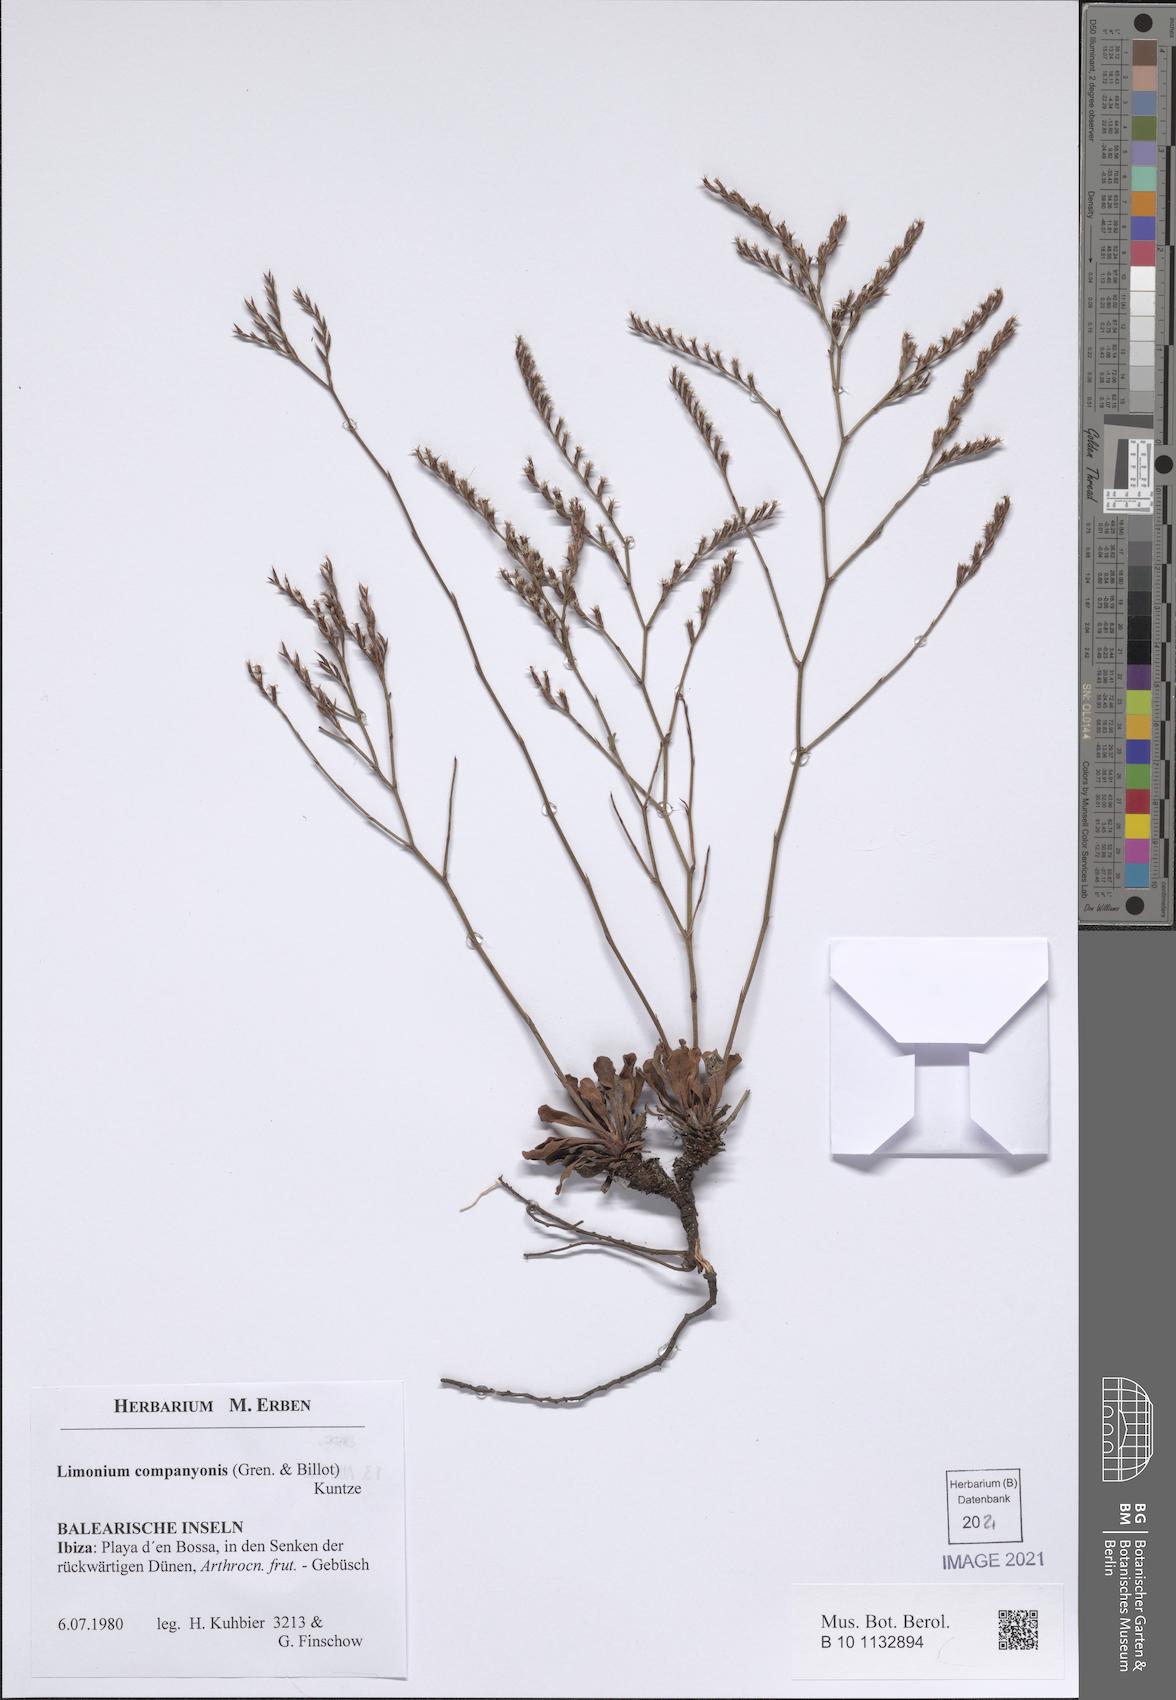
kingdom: Plantae
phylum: Tracheophyta
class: Magnoliopsida
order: Caryophyllales
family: Plumbaginaceae
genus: Limonium
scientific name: Limonium companyonis
